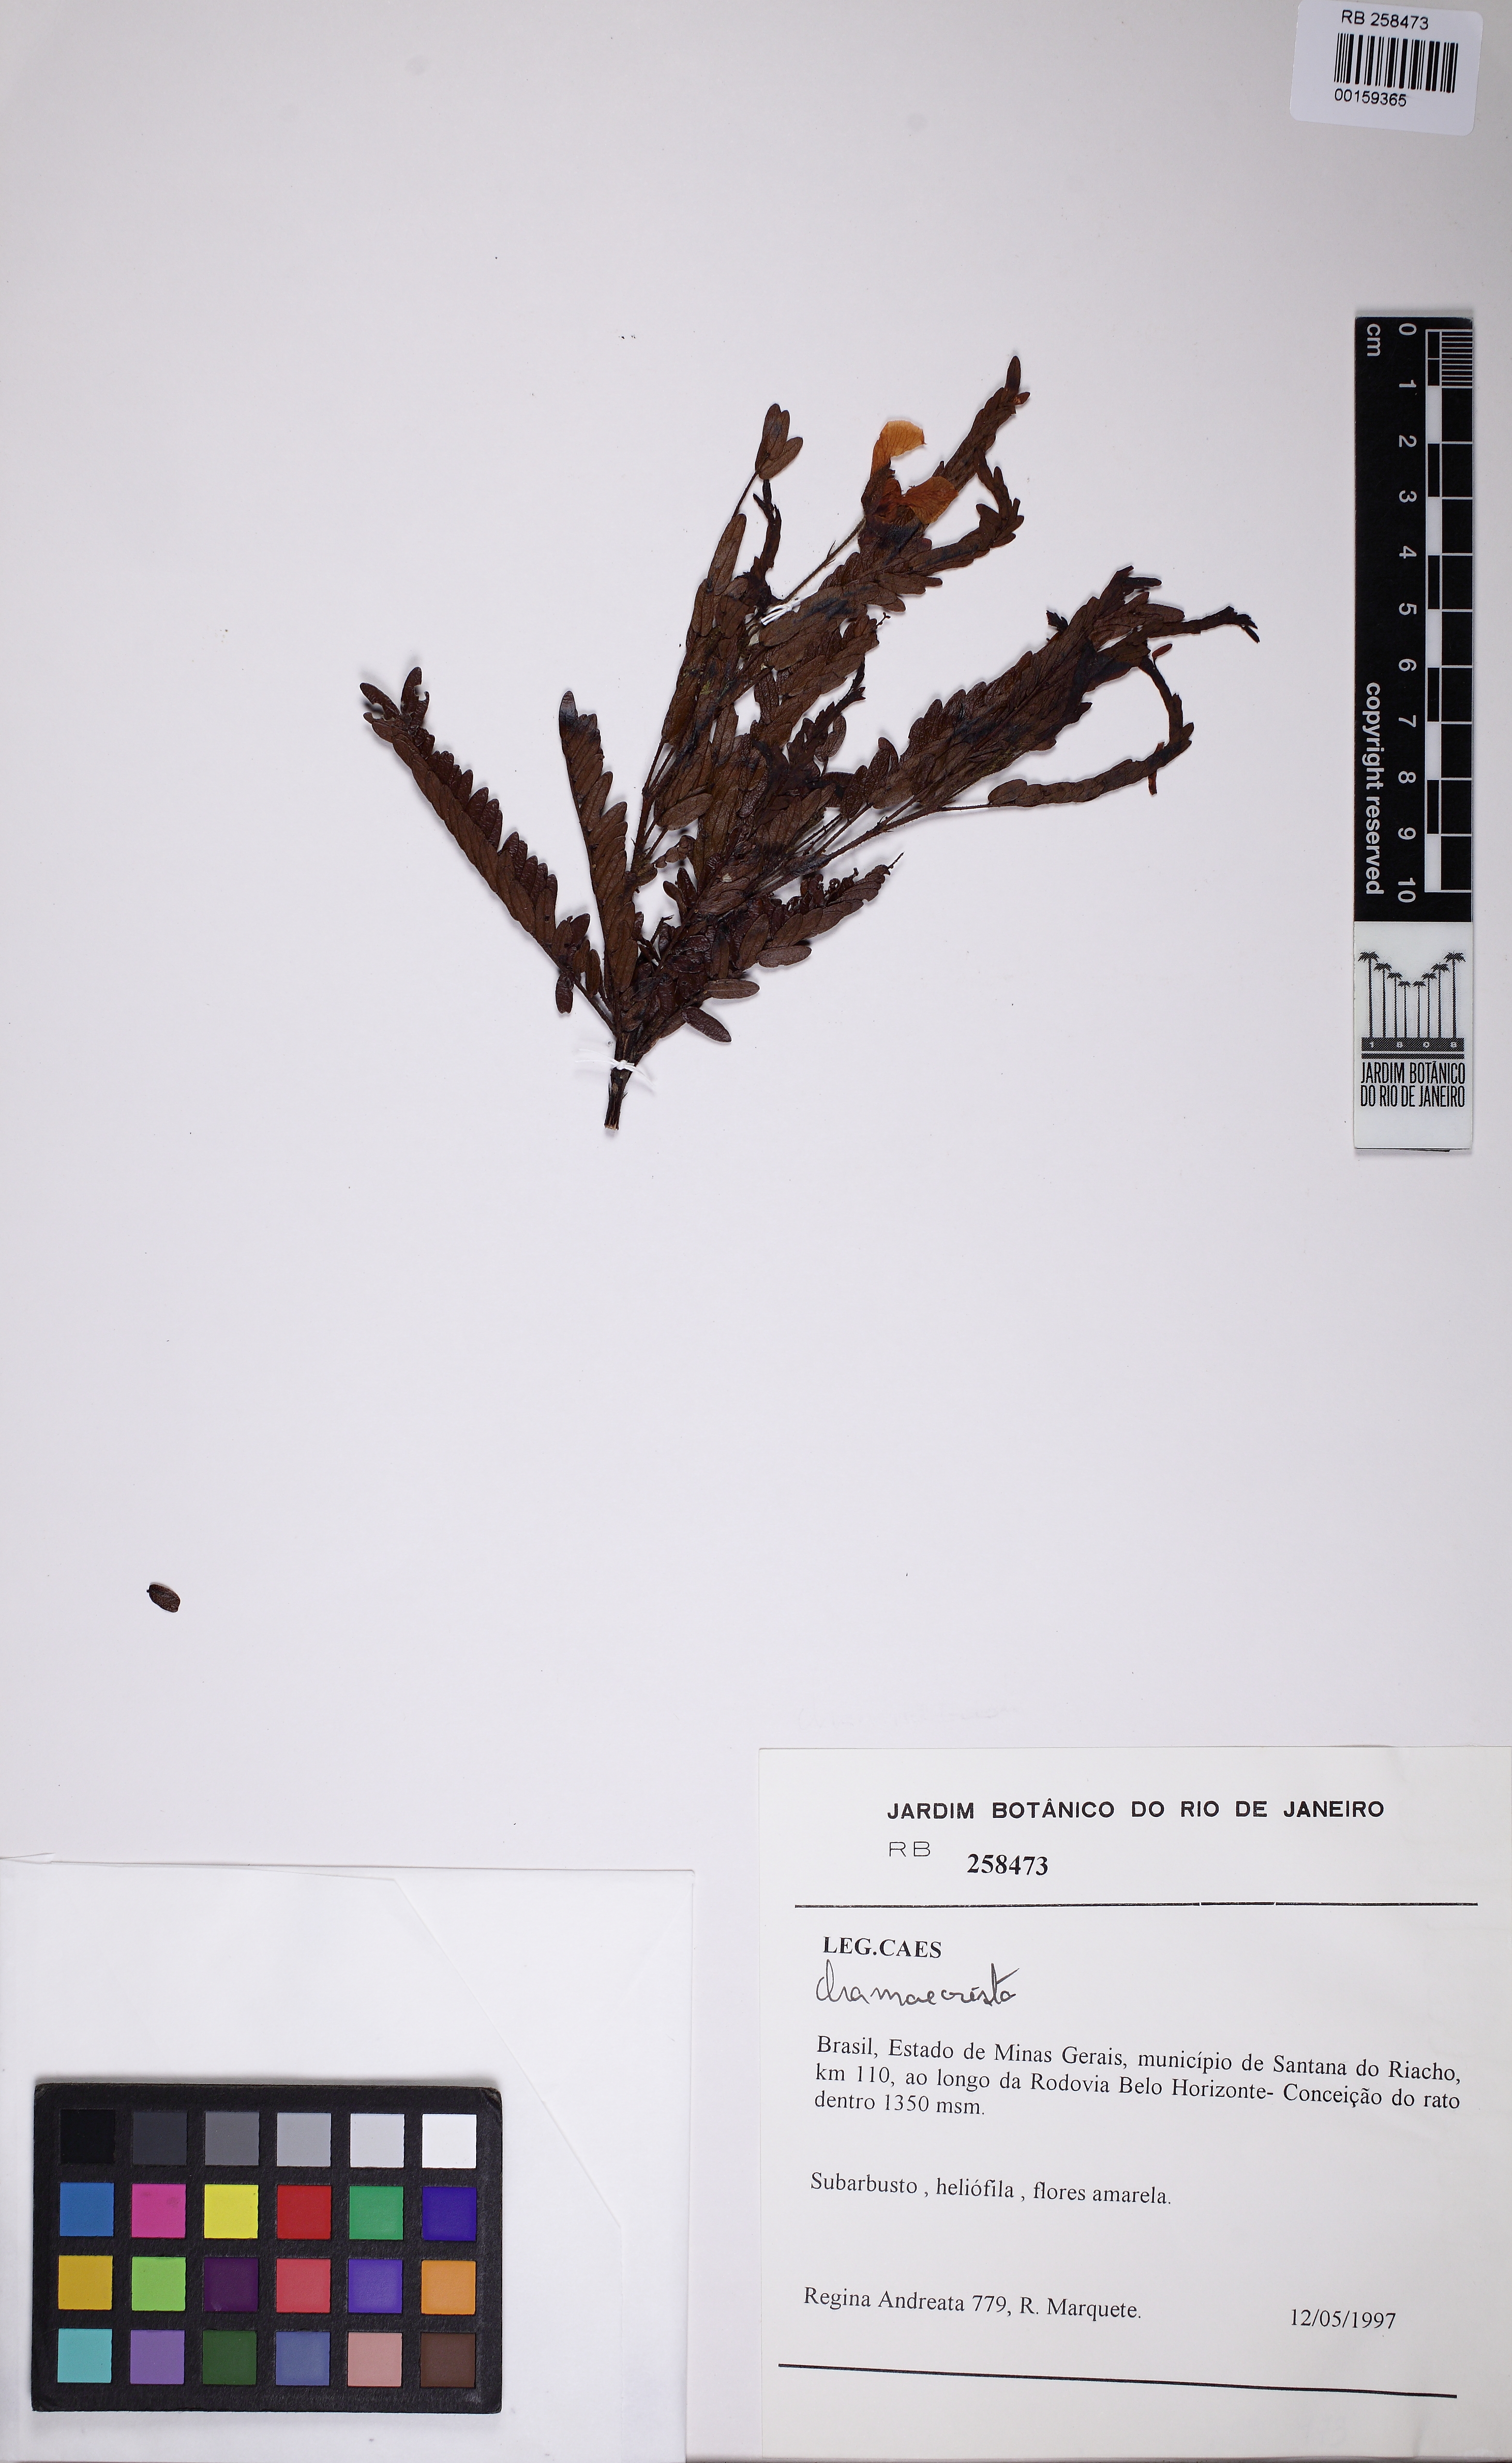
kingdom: Plantae
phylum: Tracheophyta
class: Magnoliopsida
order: Fabales
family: Fabaceae
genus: Chamaecrista
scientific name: Chamaecrista
